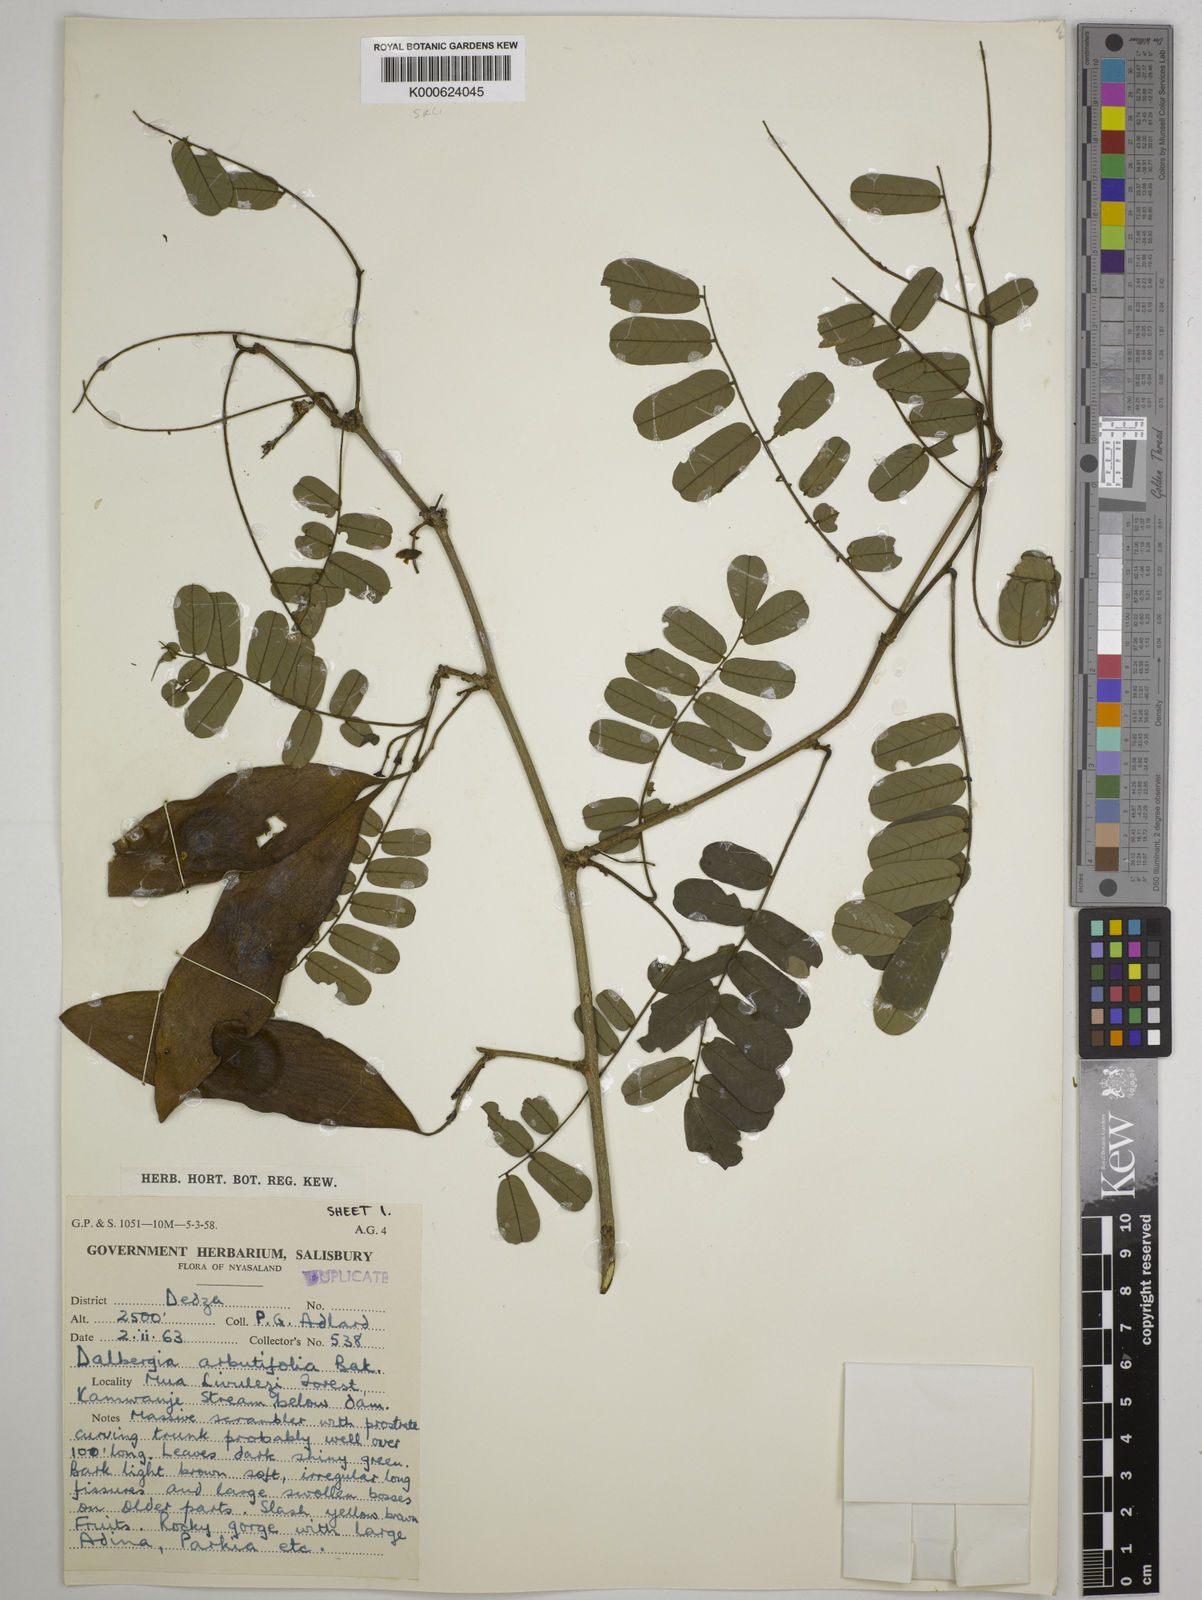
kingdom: Plantae
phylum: Tracheophyta
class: Magnoliopsida
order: Fabales
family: Fabaceae
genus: Dalbergia
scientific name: Dalbergia arbutifolia
